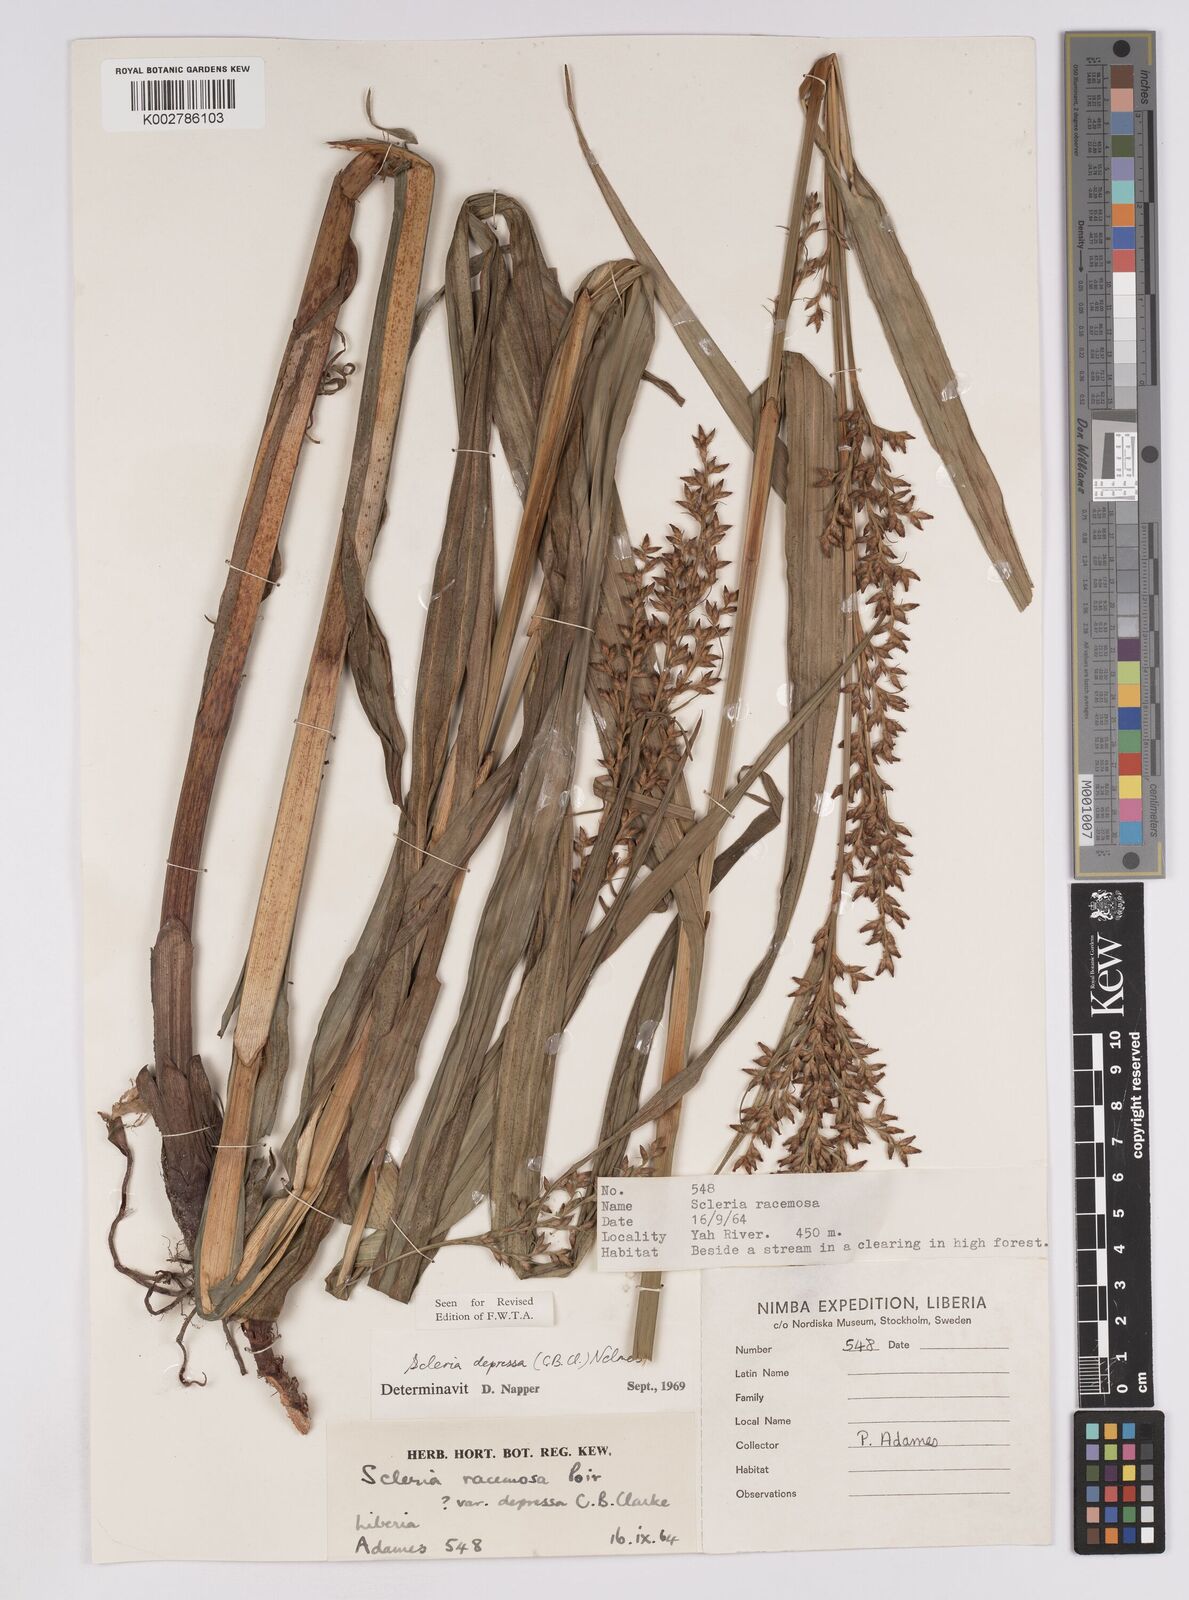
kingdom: Plantae
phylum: Tracheophyta
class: Liliopsida
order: Poales
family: Cyperaceae
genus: Scleria
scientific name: Scleria depressa
